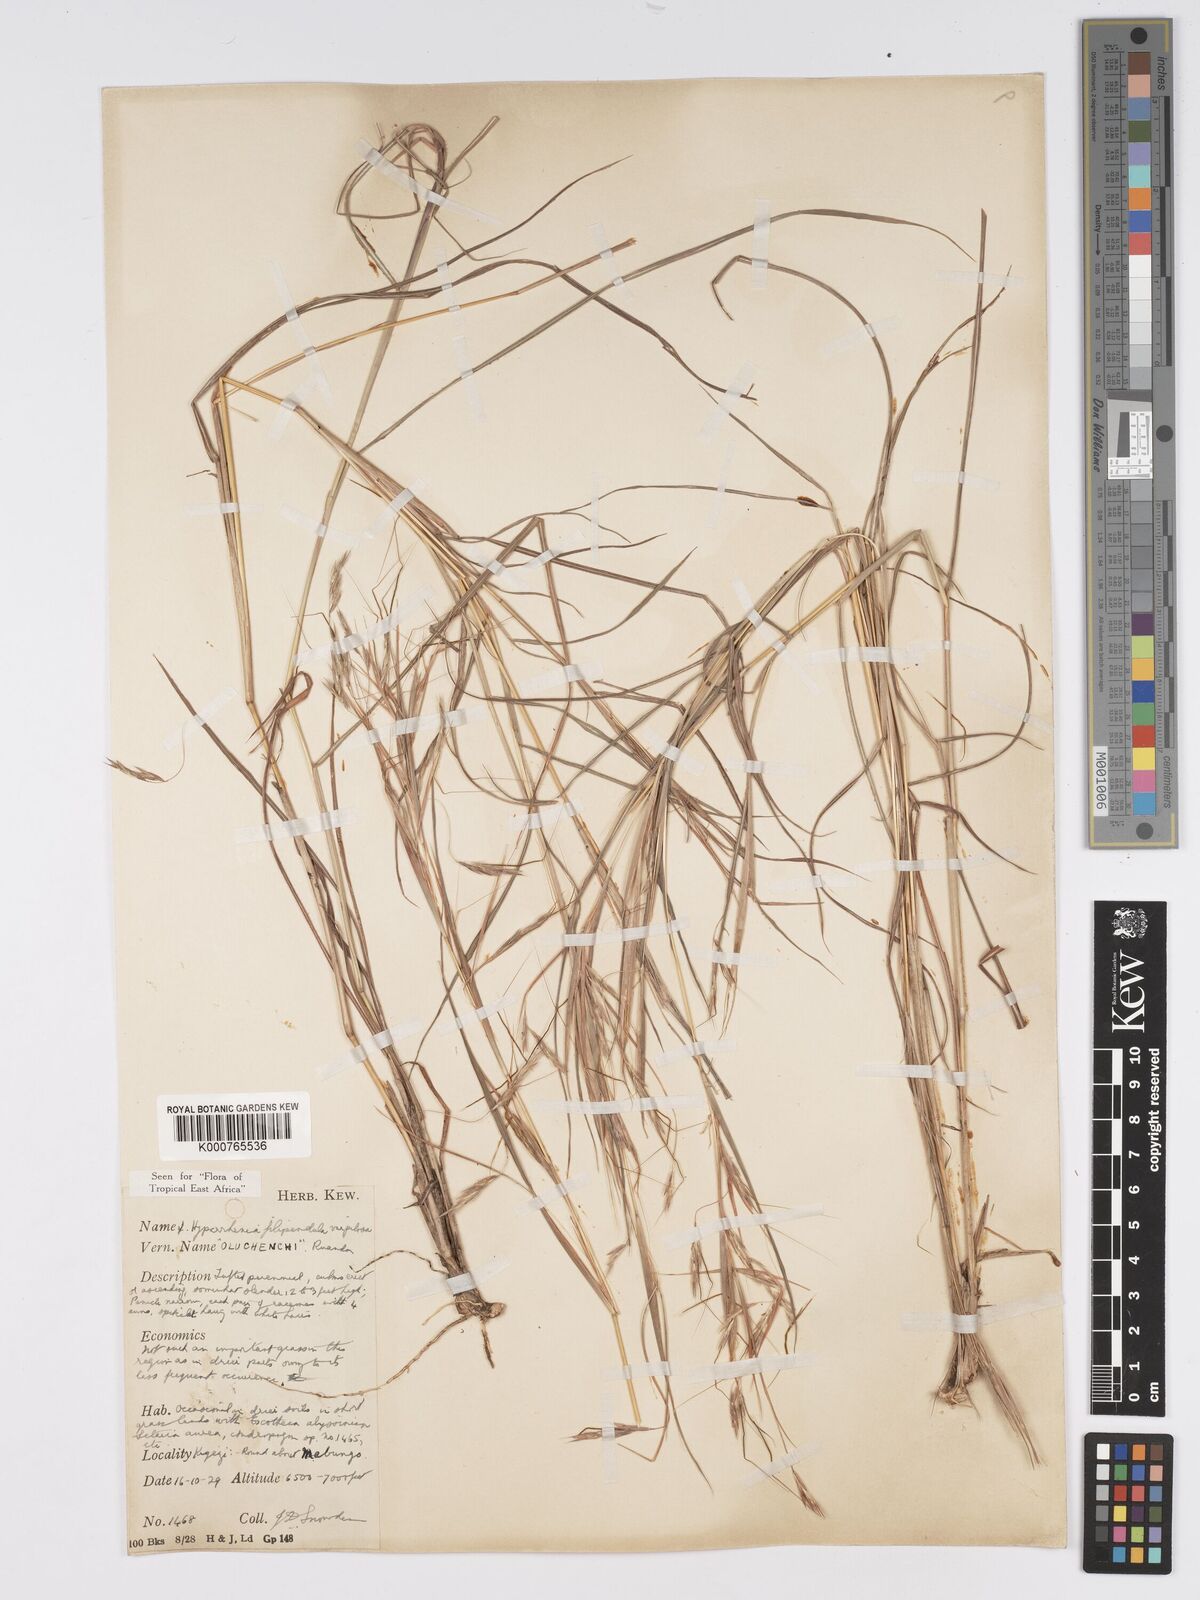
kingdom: Plantae
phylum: Tracheophyta
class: Liliopsida
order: Poales
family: Poaceae
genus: Hyparrhenia
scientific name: Hyparrhenia filipendula
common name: Tambookie grass
